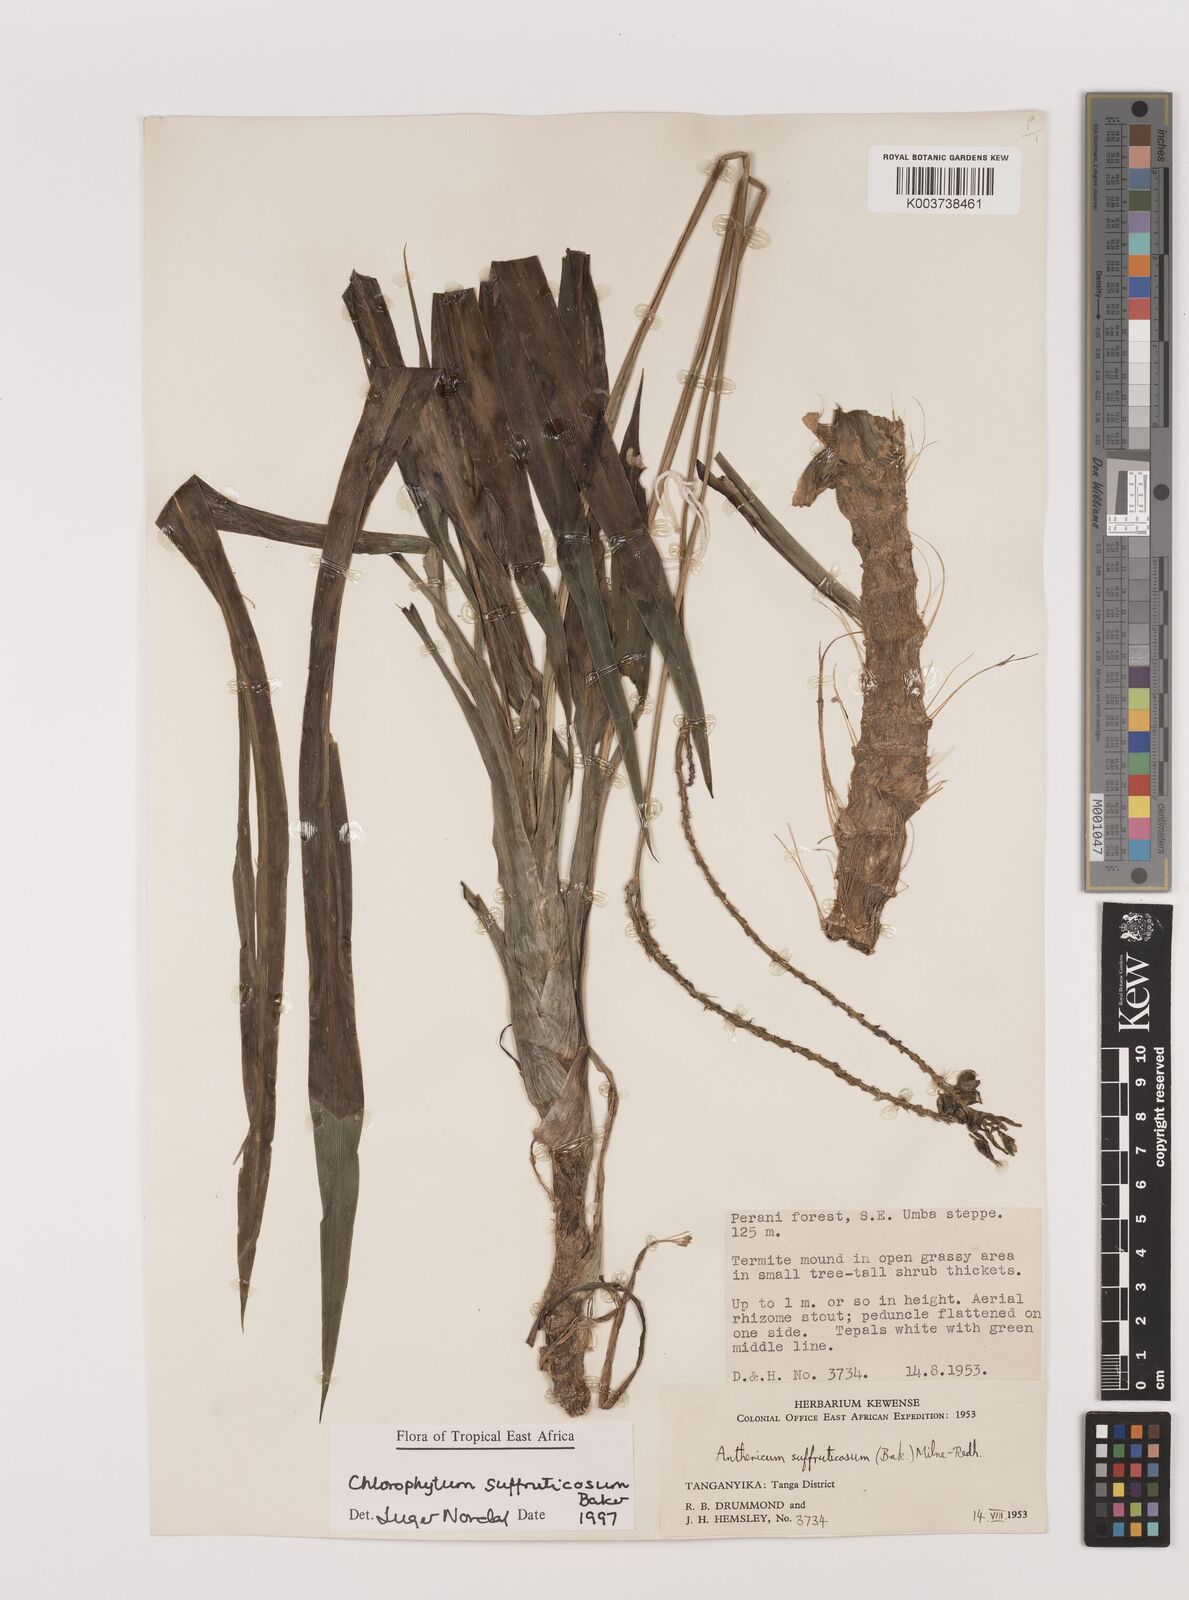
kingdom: Plantae
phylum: Tracheophyta
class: Liliopsida
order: Asparagales
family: Asparagaceae
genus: Chlorophytum
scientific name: Chlorophytum suffruticosum
